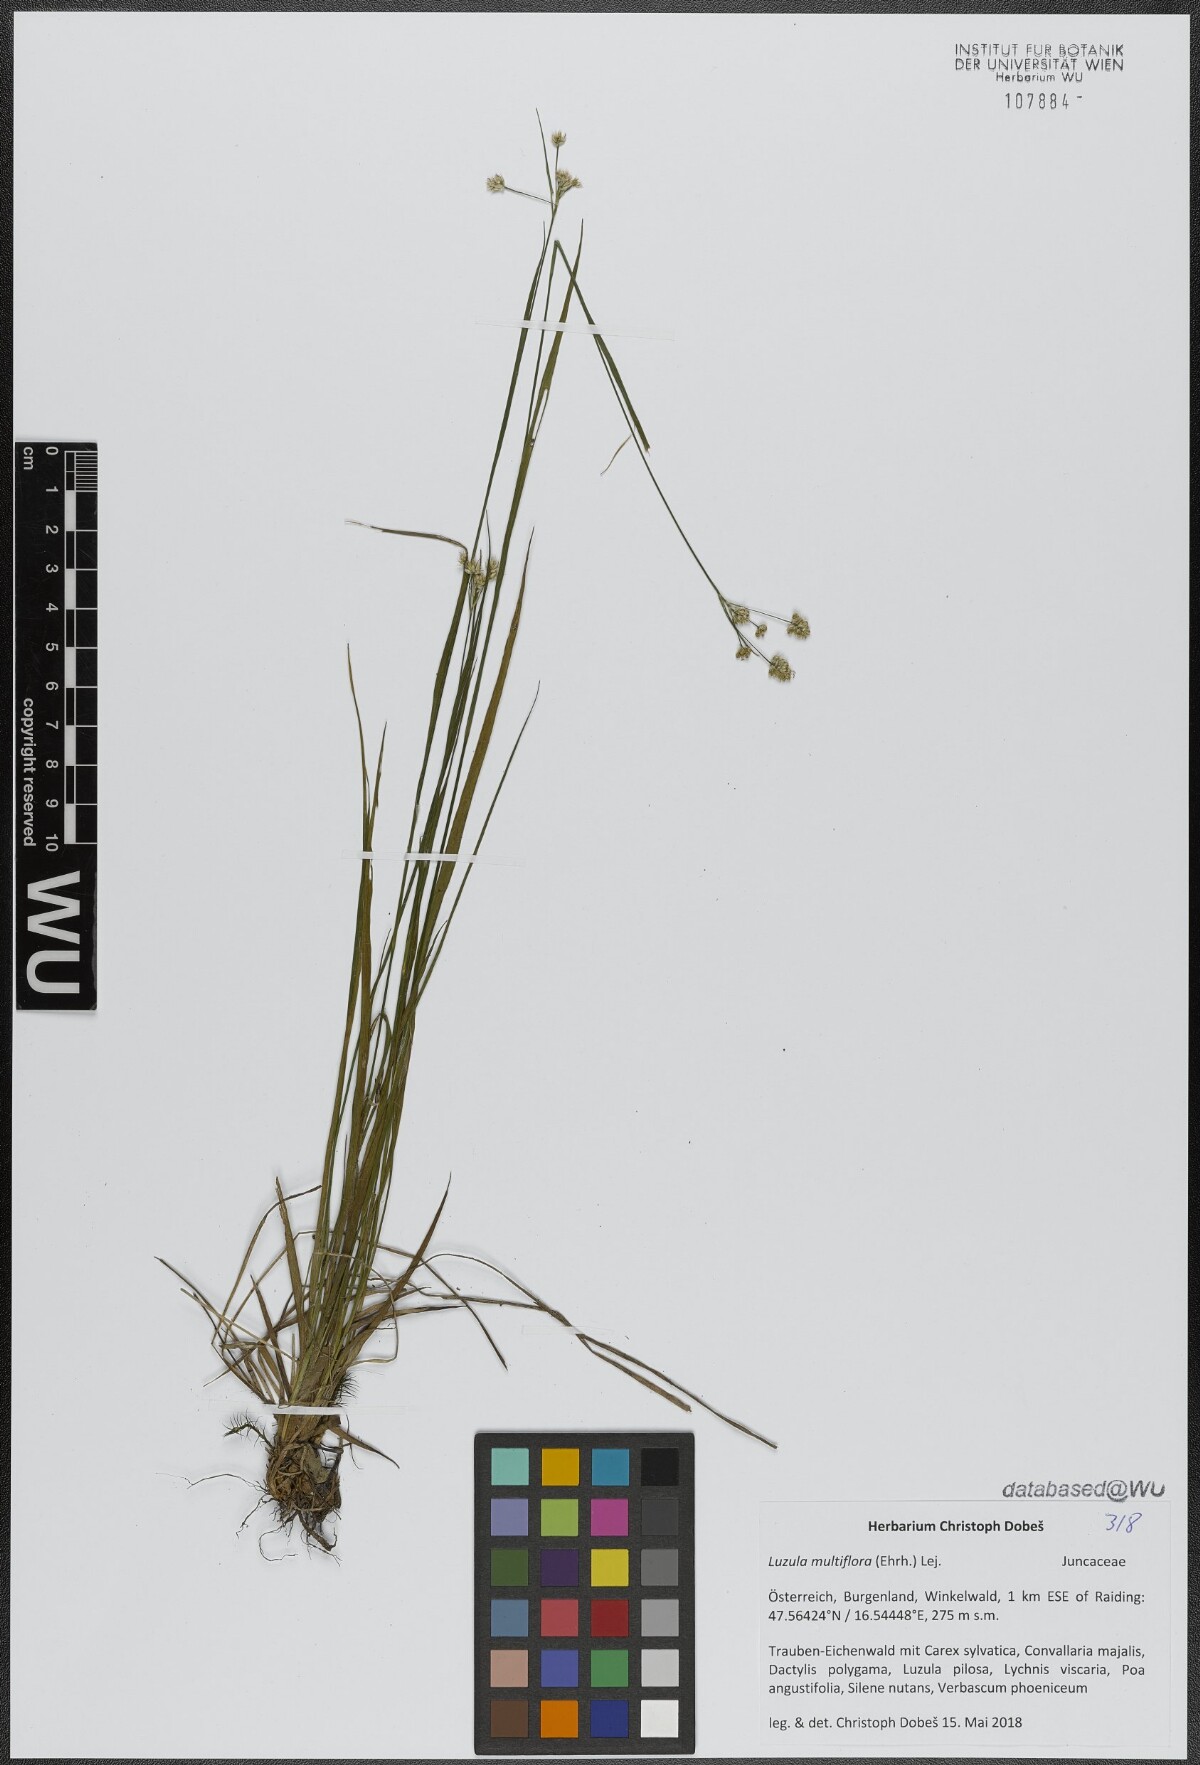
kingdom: Plantae
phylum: Tracheophyta
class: Liliopsida
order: Poales
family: Juncaceae
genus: Luzula
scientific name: Luzula multiflora
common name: Heath wood-rush
